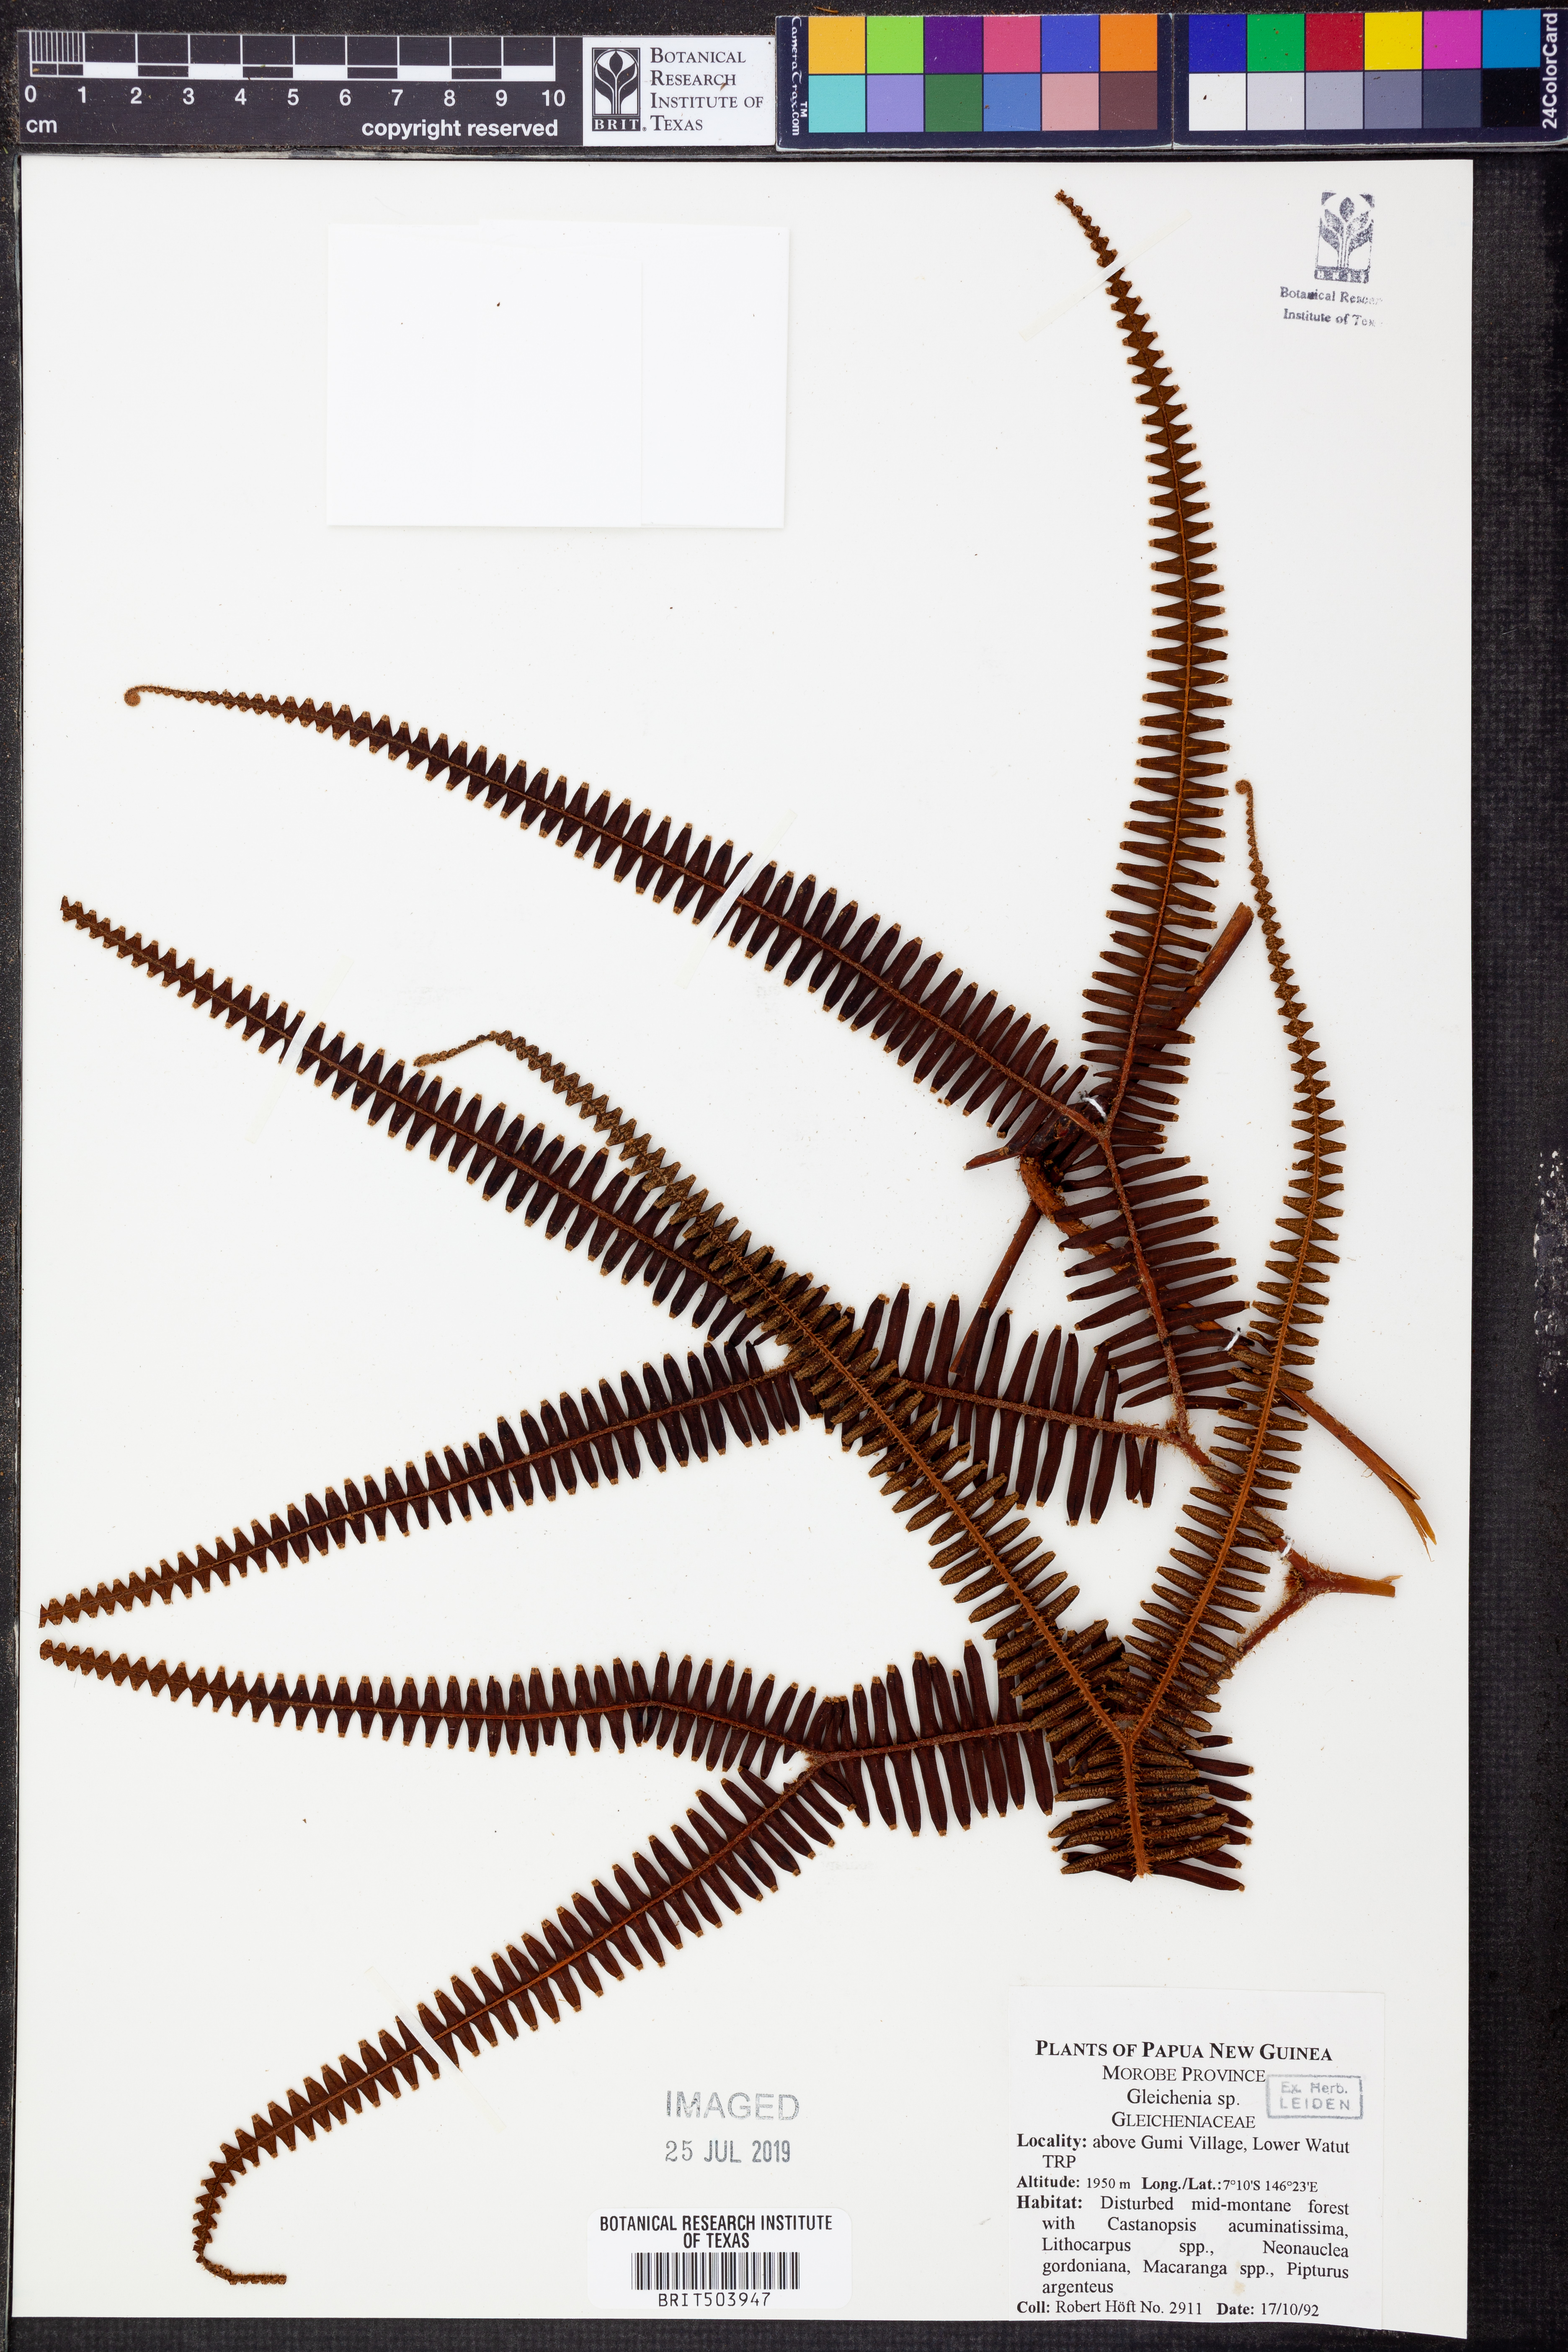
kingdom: Plantae
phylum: Tracheophyta
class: Polypodiopsida
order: Gleicheniales
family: Gleicheniaceae
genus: Gleichenia
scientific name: Gleichenia
